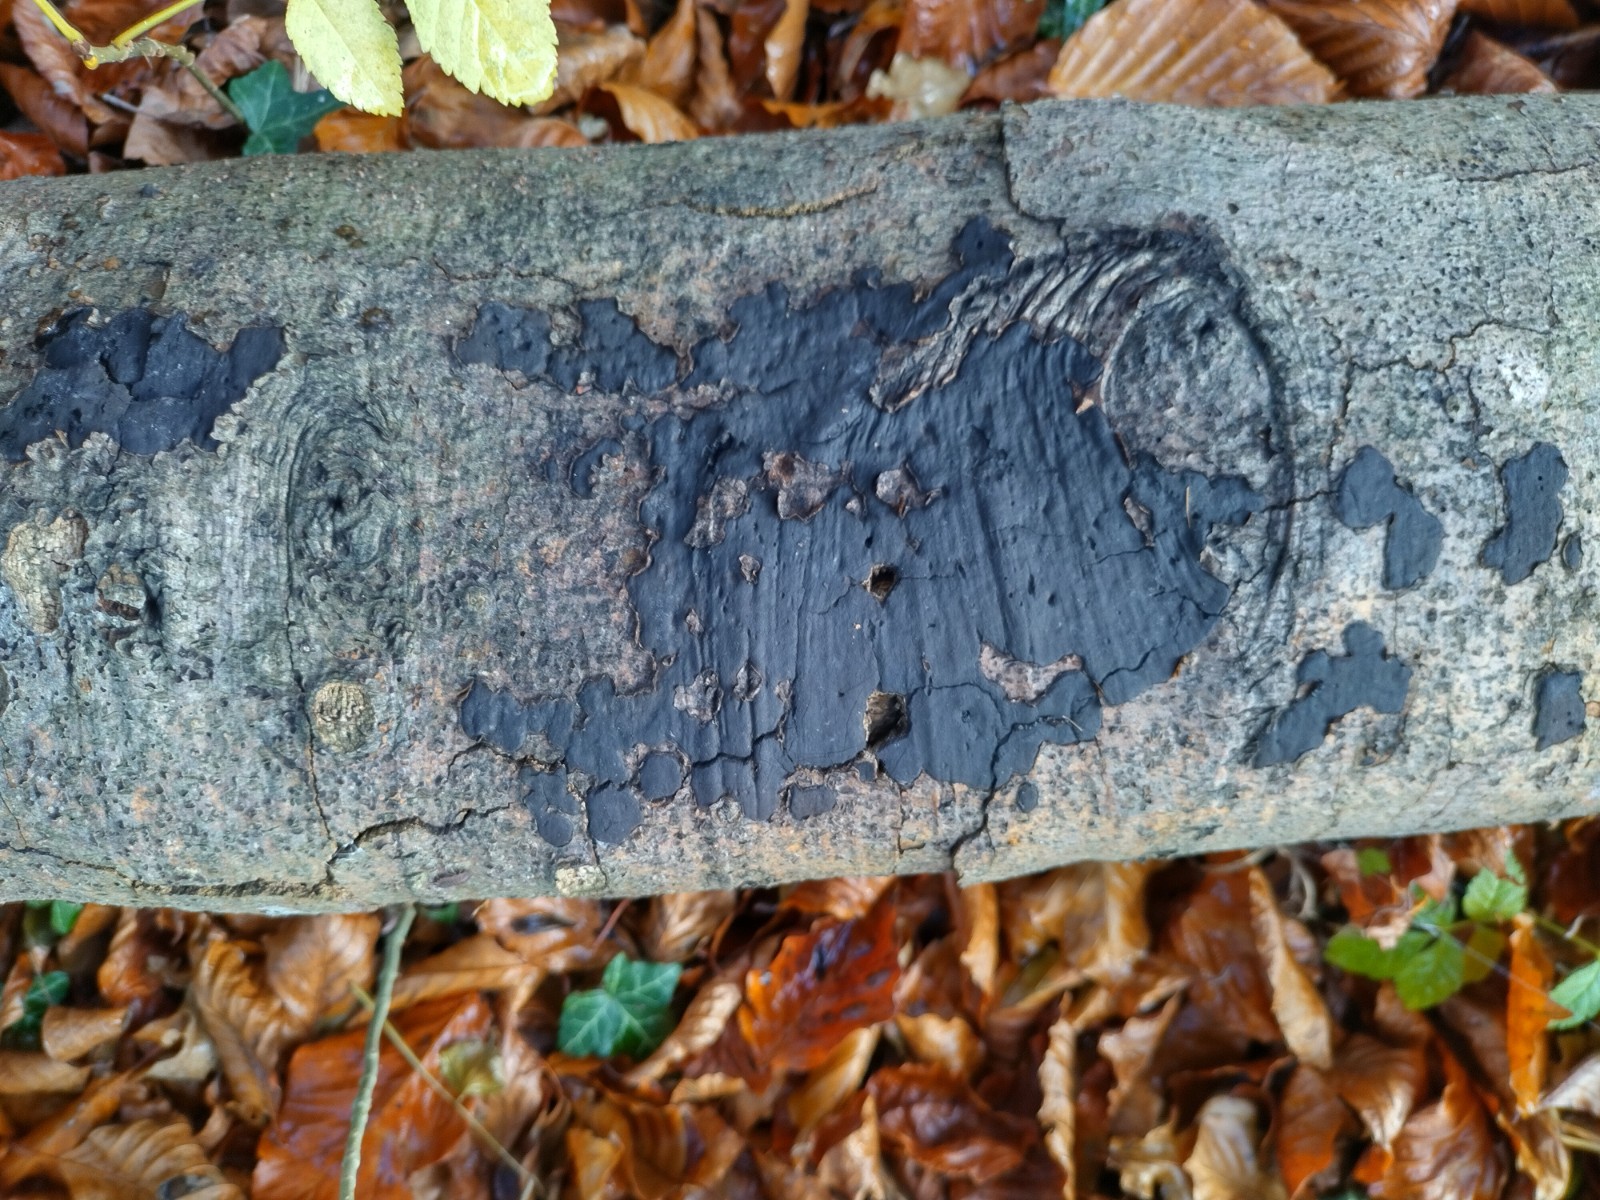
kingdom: Fungi
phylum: Ascomycota
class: Sordariomycetes
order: Xylariales
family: Graphostromataceae
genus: Biscogniauxia
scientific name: Biscogniauxia nummularia
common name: bøge-kulskive
